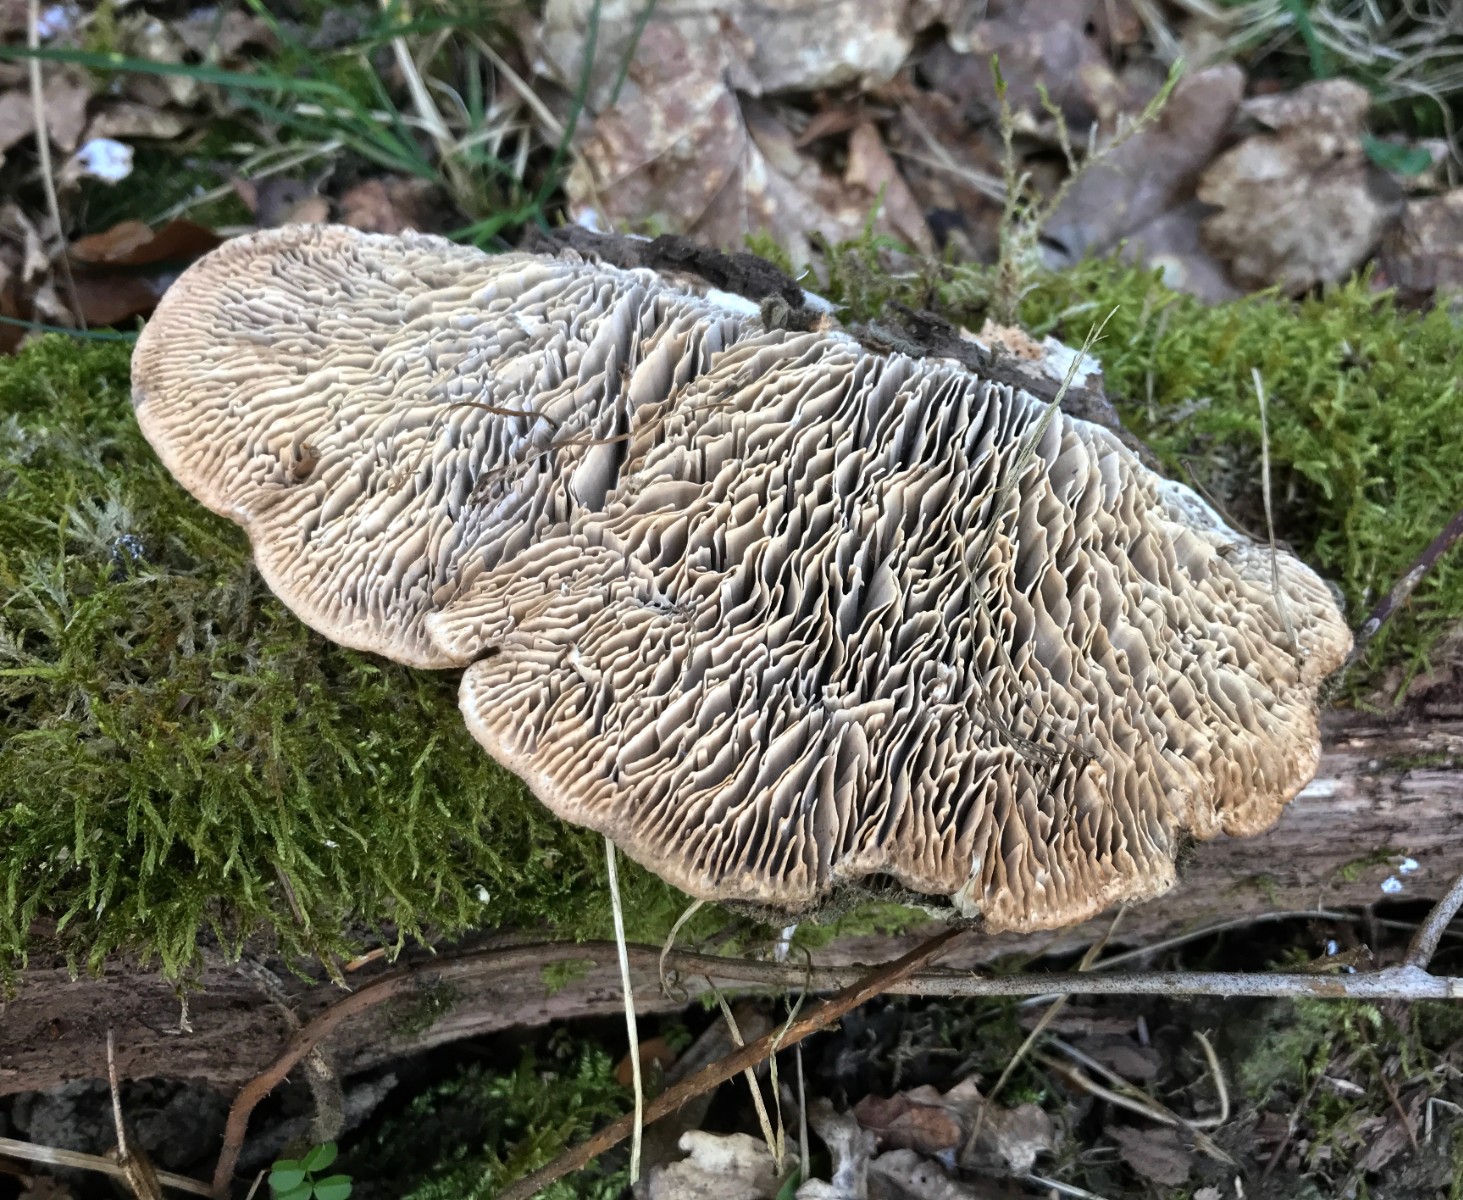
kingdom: Fungi
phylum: Basidiomycota
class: Agaricomycetes
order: Polyporales
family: Fomitopsidaceae
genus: Daedalea
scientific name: Daedalea quercina
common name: ege-labyrintsvamp
